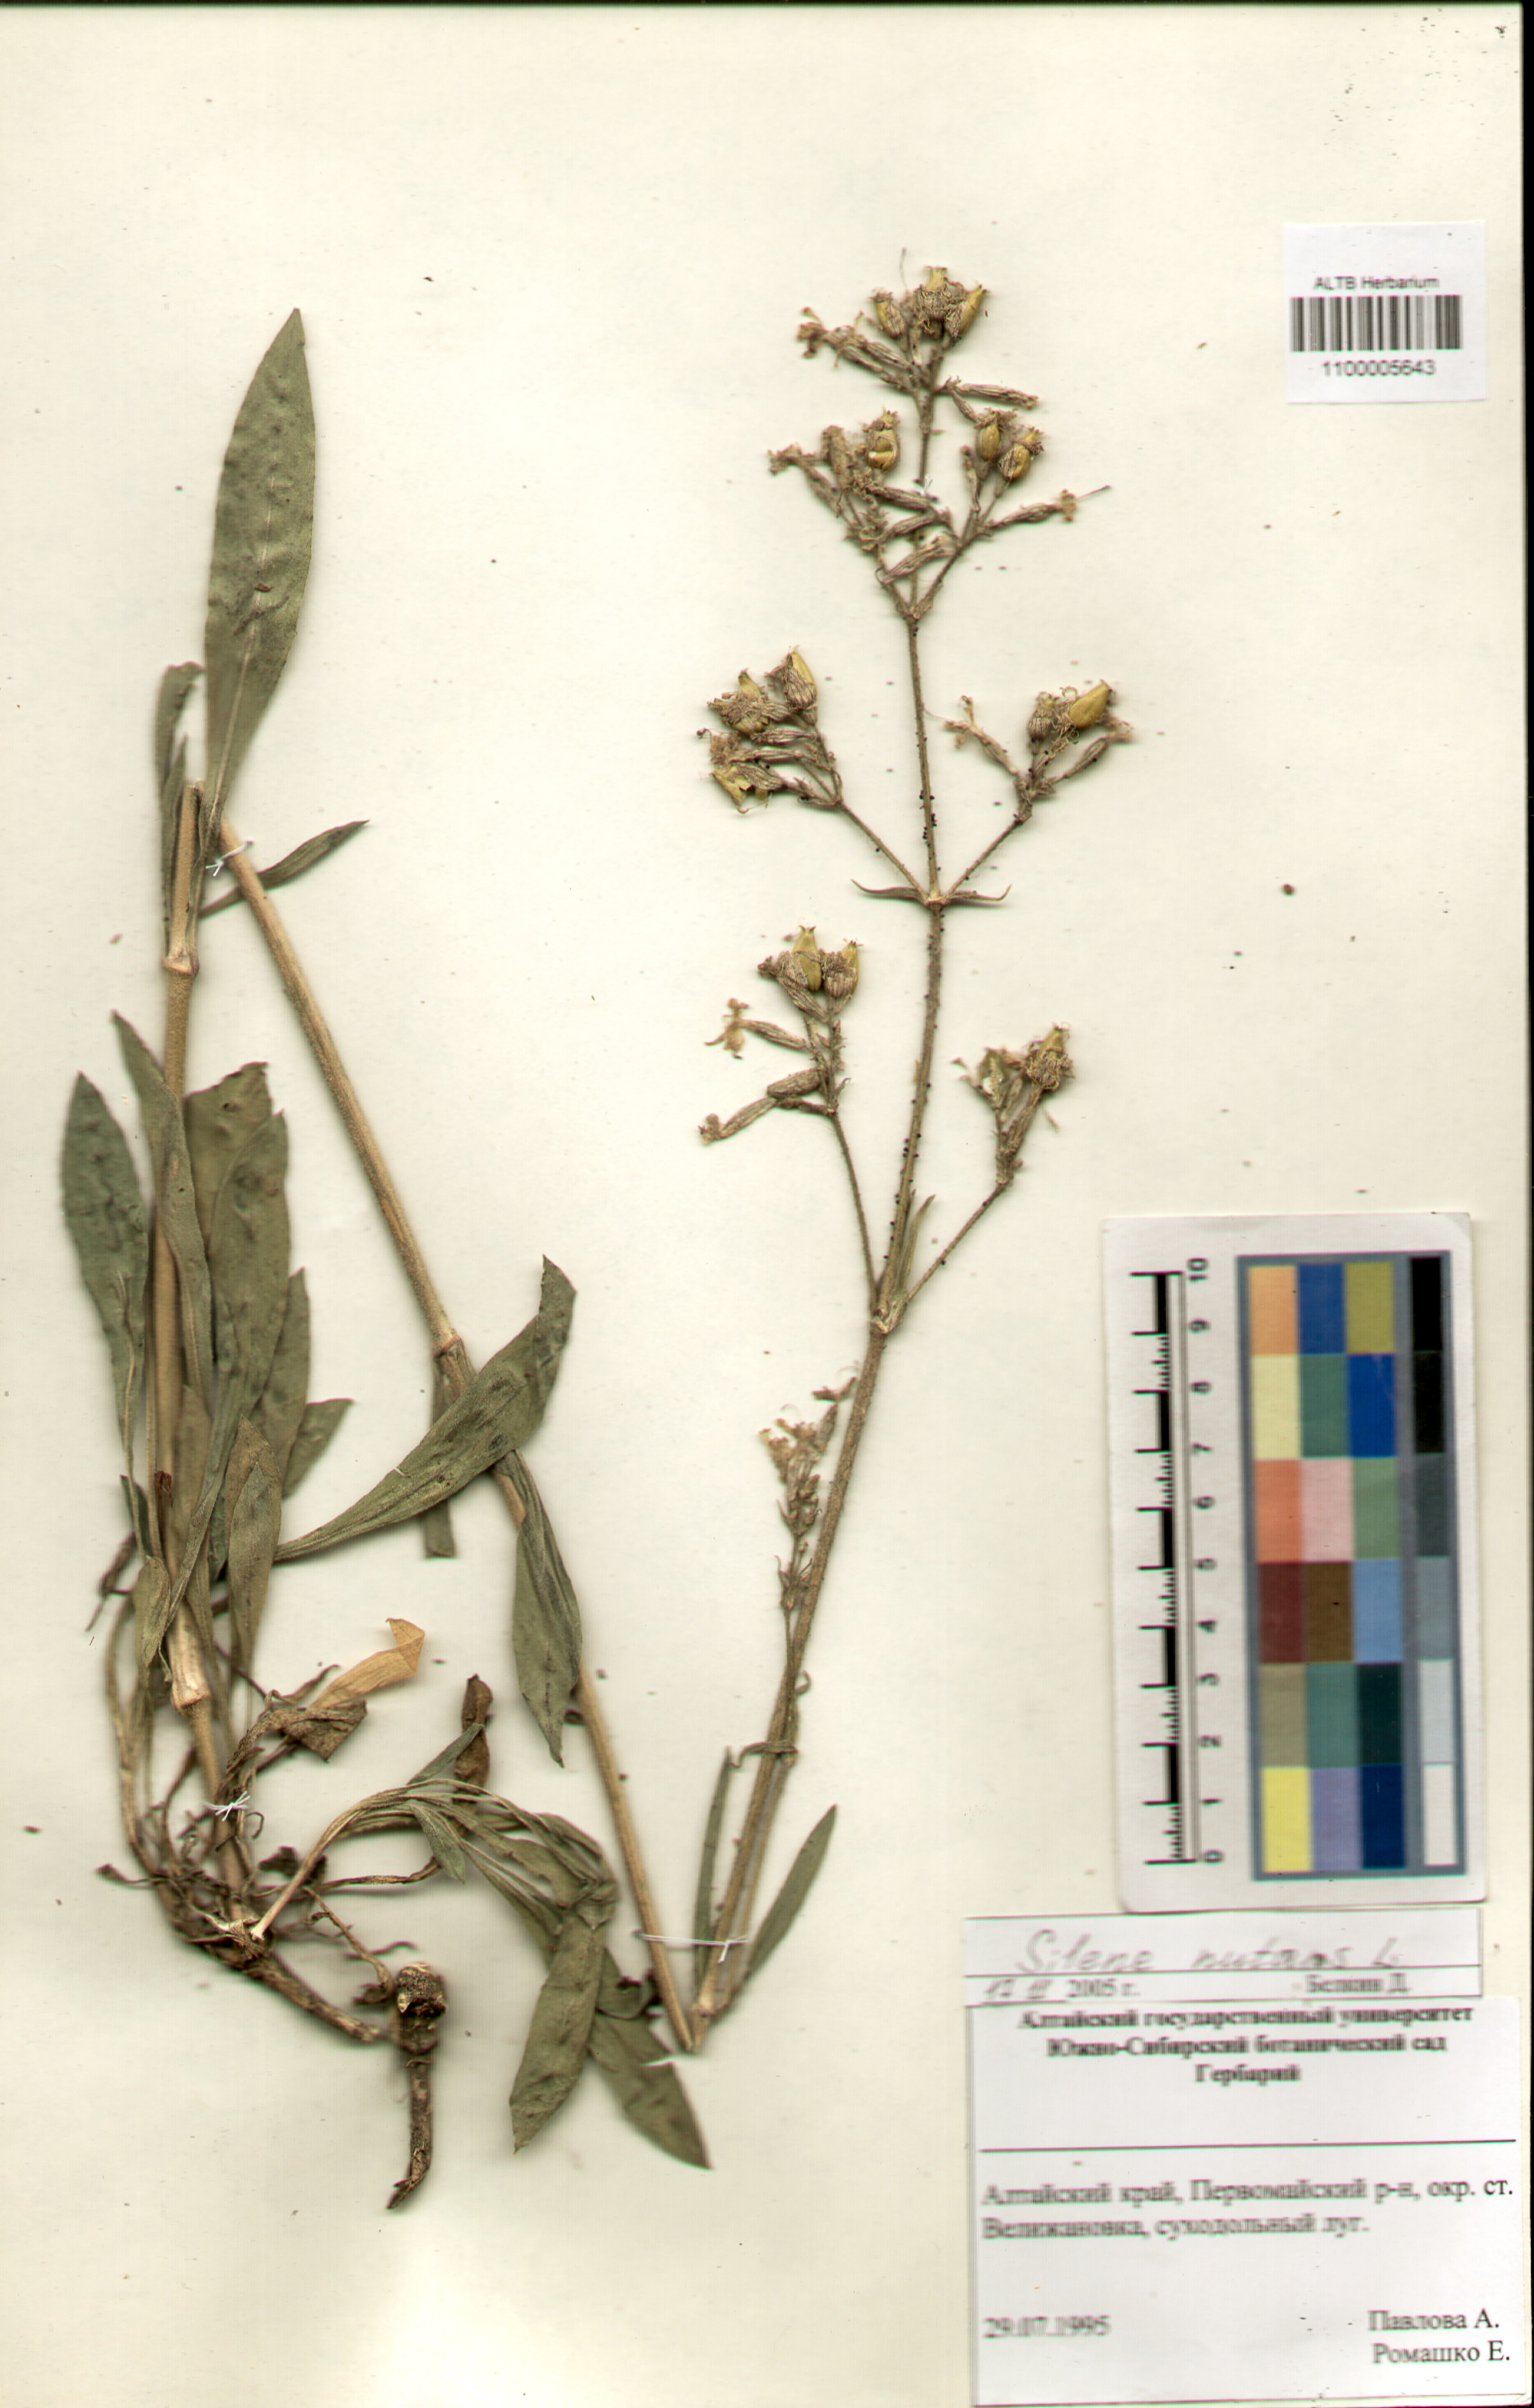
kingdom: Plantae
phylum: Tracheophyta
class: Magnoliopsida
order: Caryophyllales
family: Caryophyllaceae
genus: Silene
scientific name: Silene nutans
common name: Nottingham catchfly
